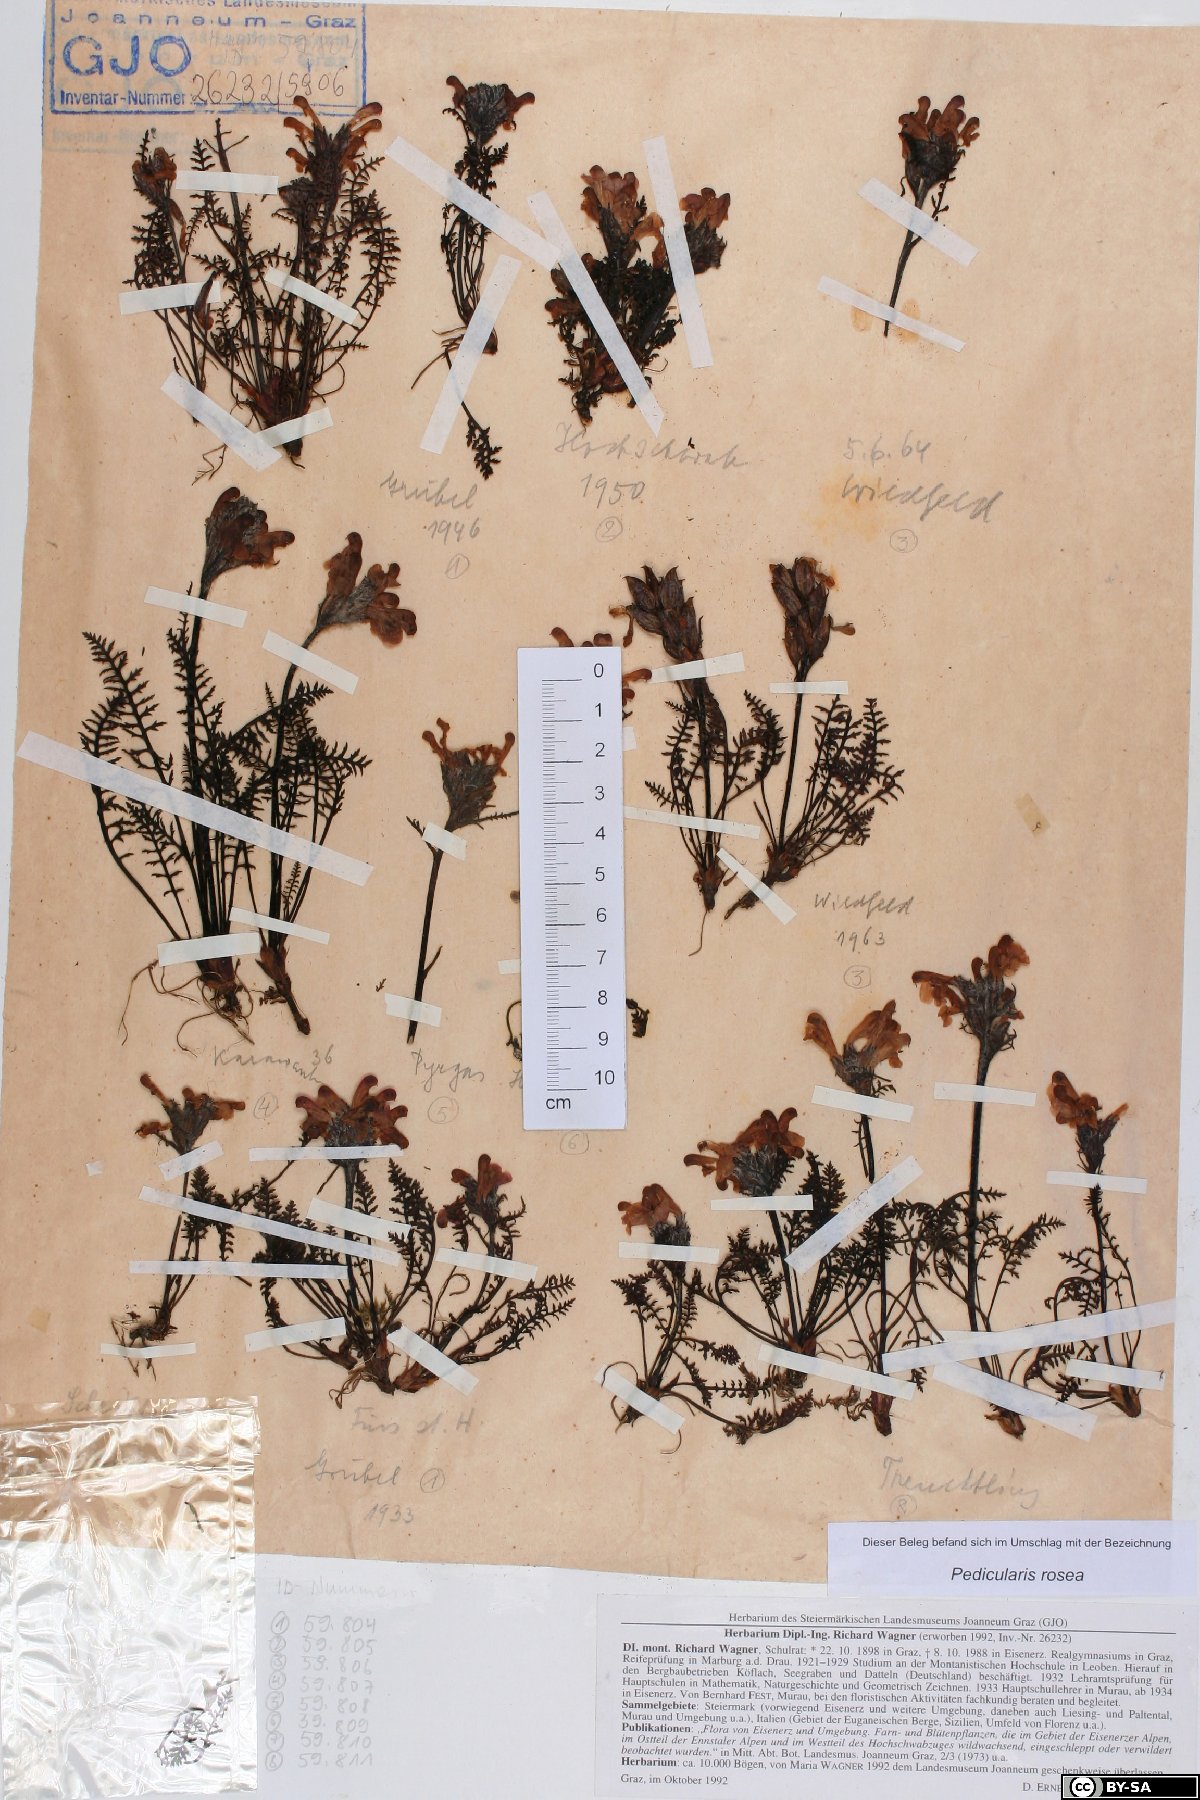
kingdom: Plantae
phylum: Tracheophyta
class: Magnoliopsida
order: Lamiales
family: Orobanchaceae
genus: Pedicularis
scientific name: Pedicularis rosea
